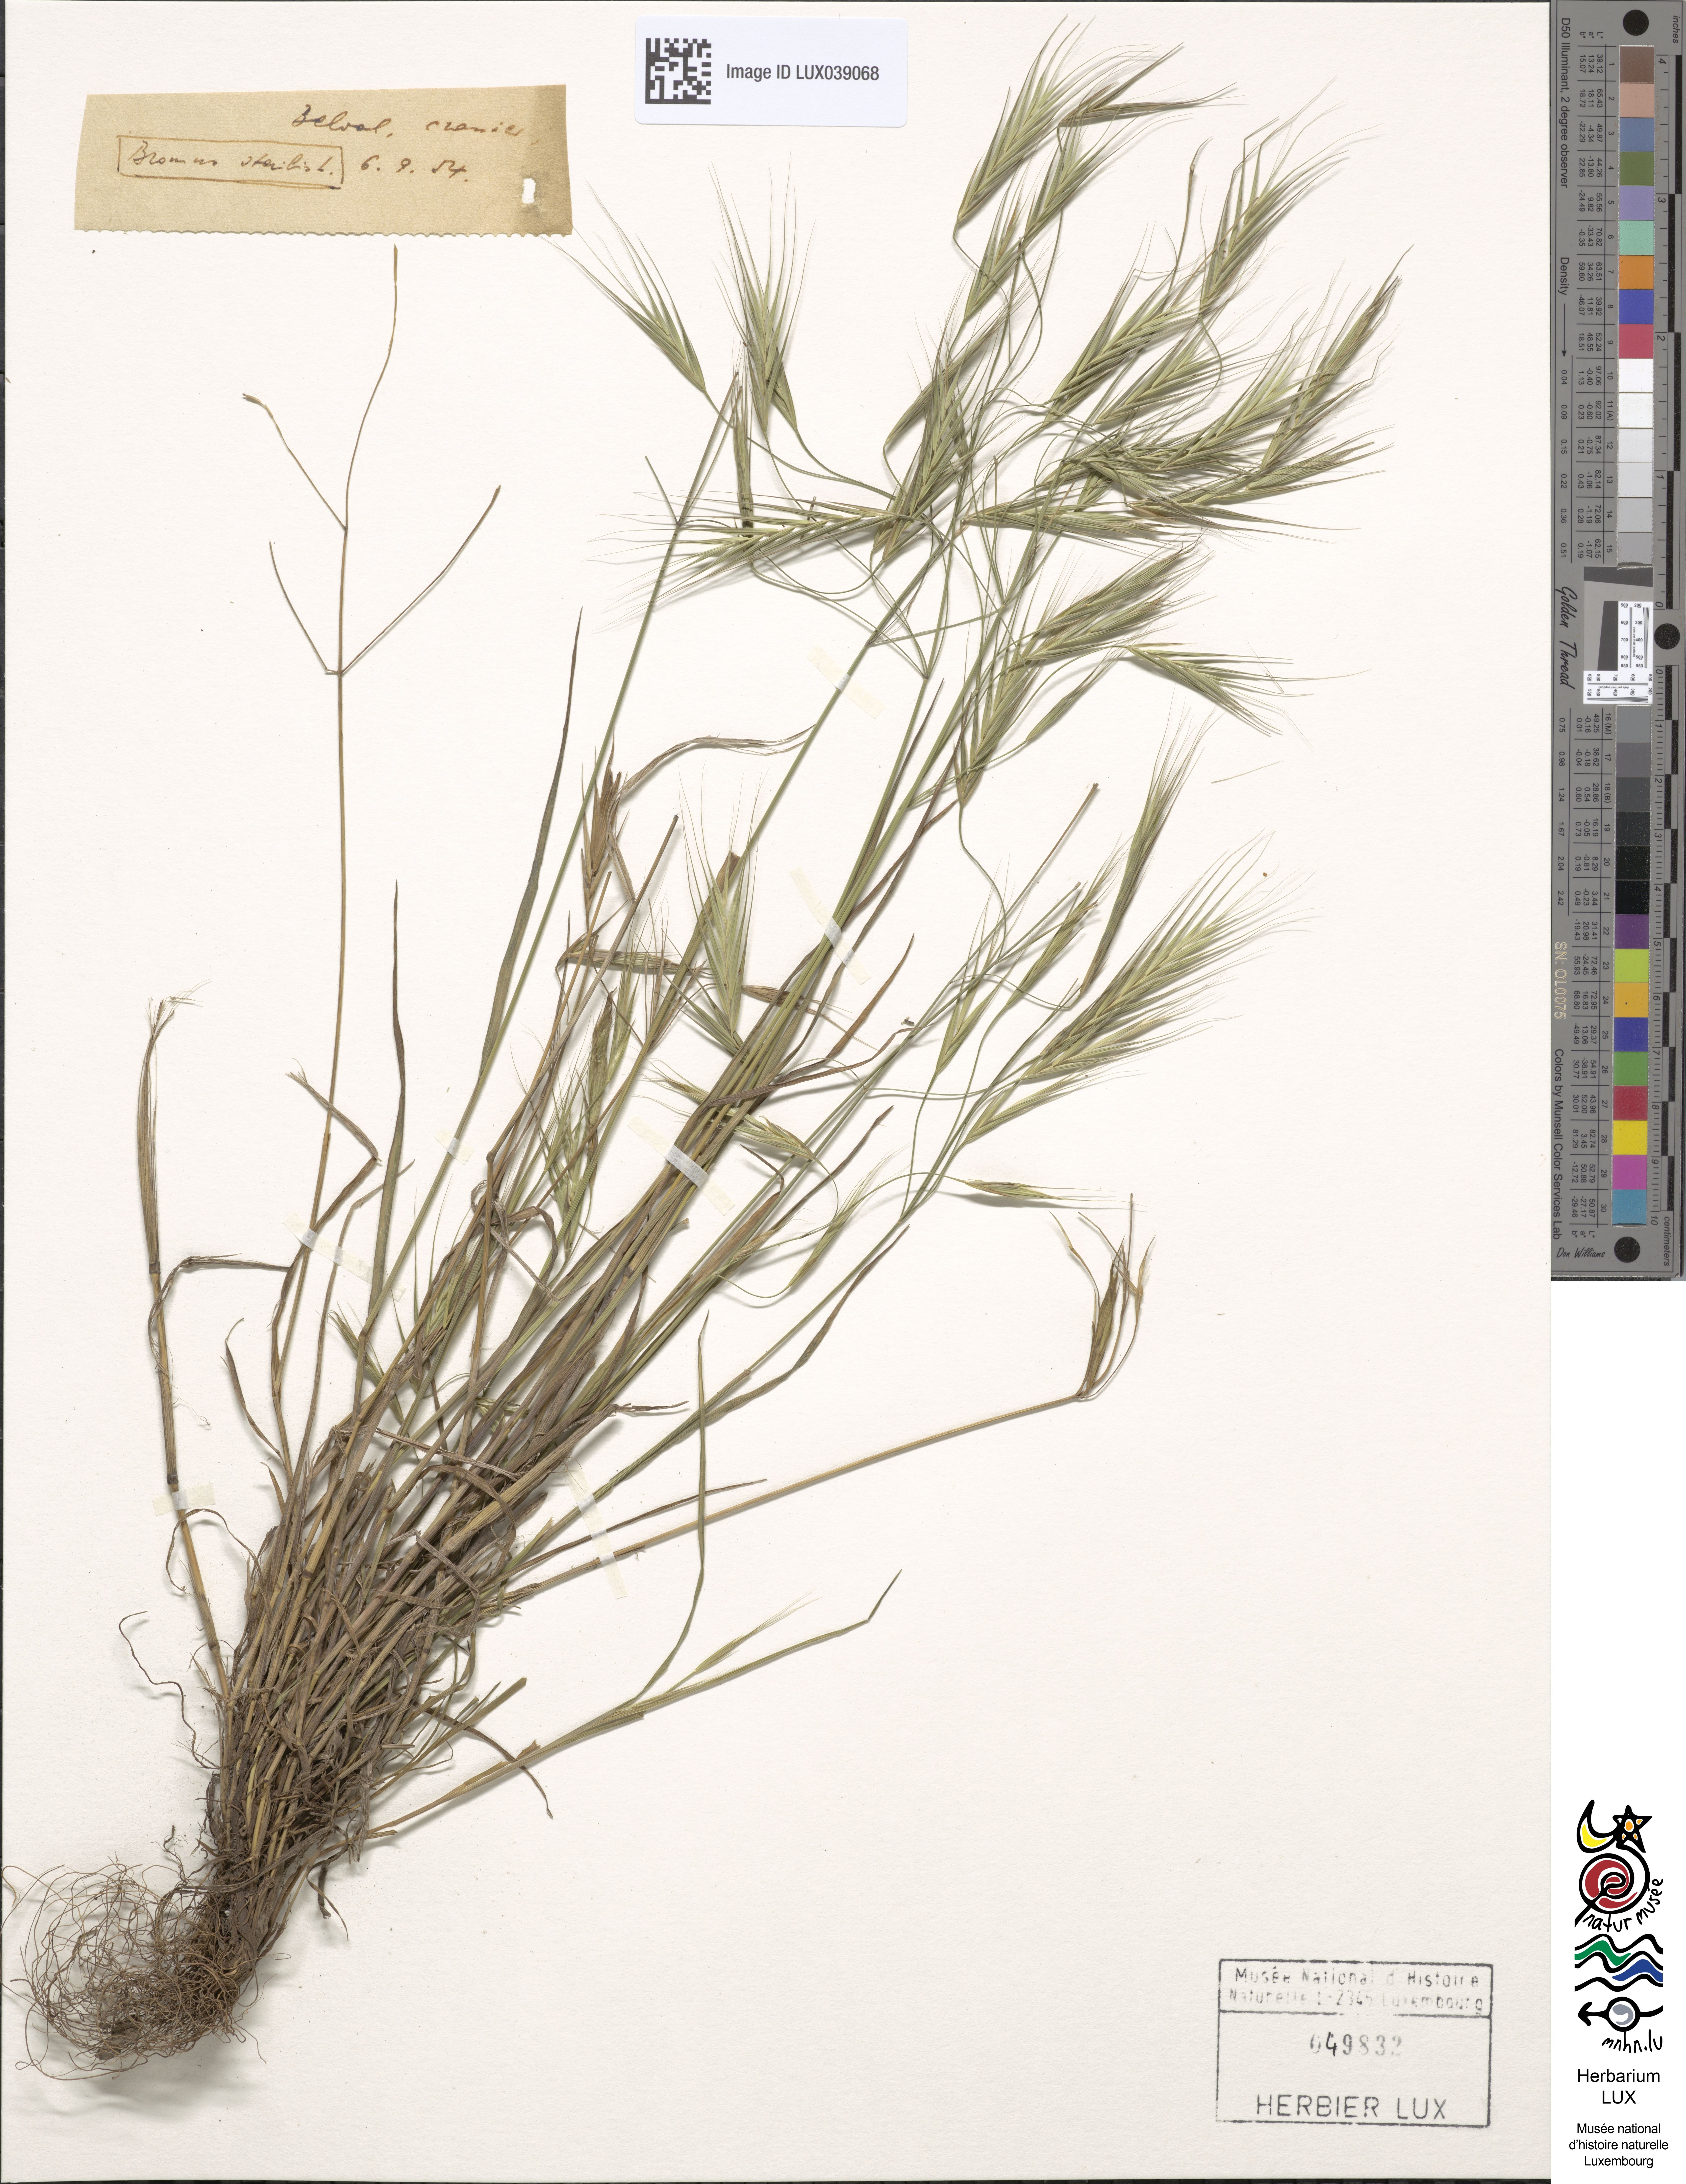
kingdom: Plantae
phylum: Tracheophyta
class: Liliopsida
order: Poales
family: Poaceae
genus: Bromus
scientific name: Bromus sterilis
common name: Poverty brome
